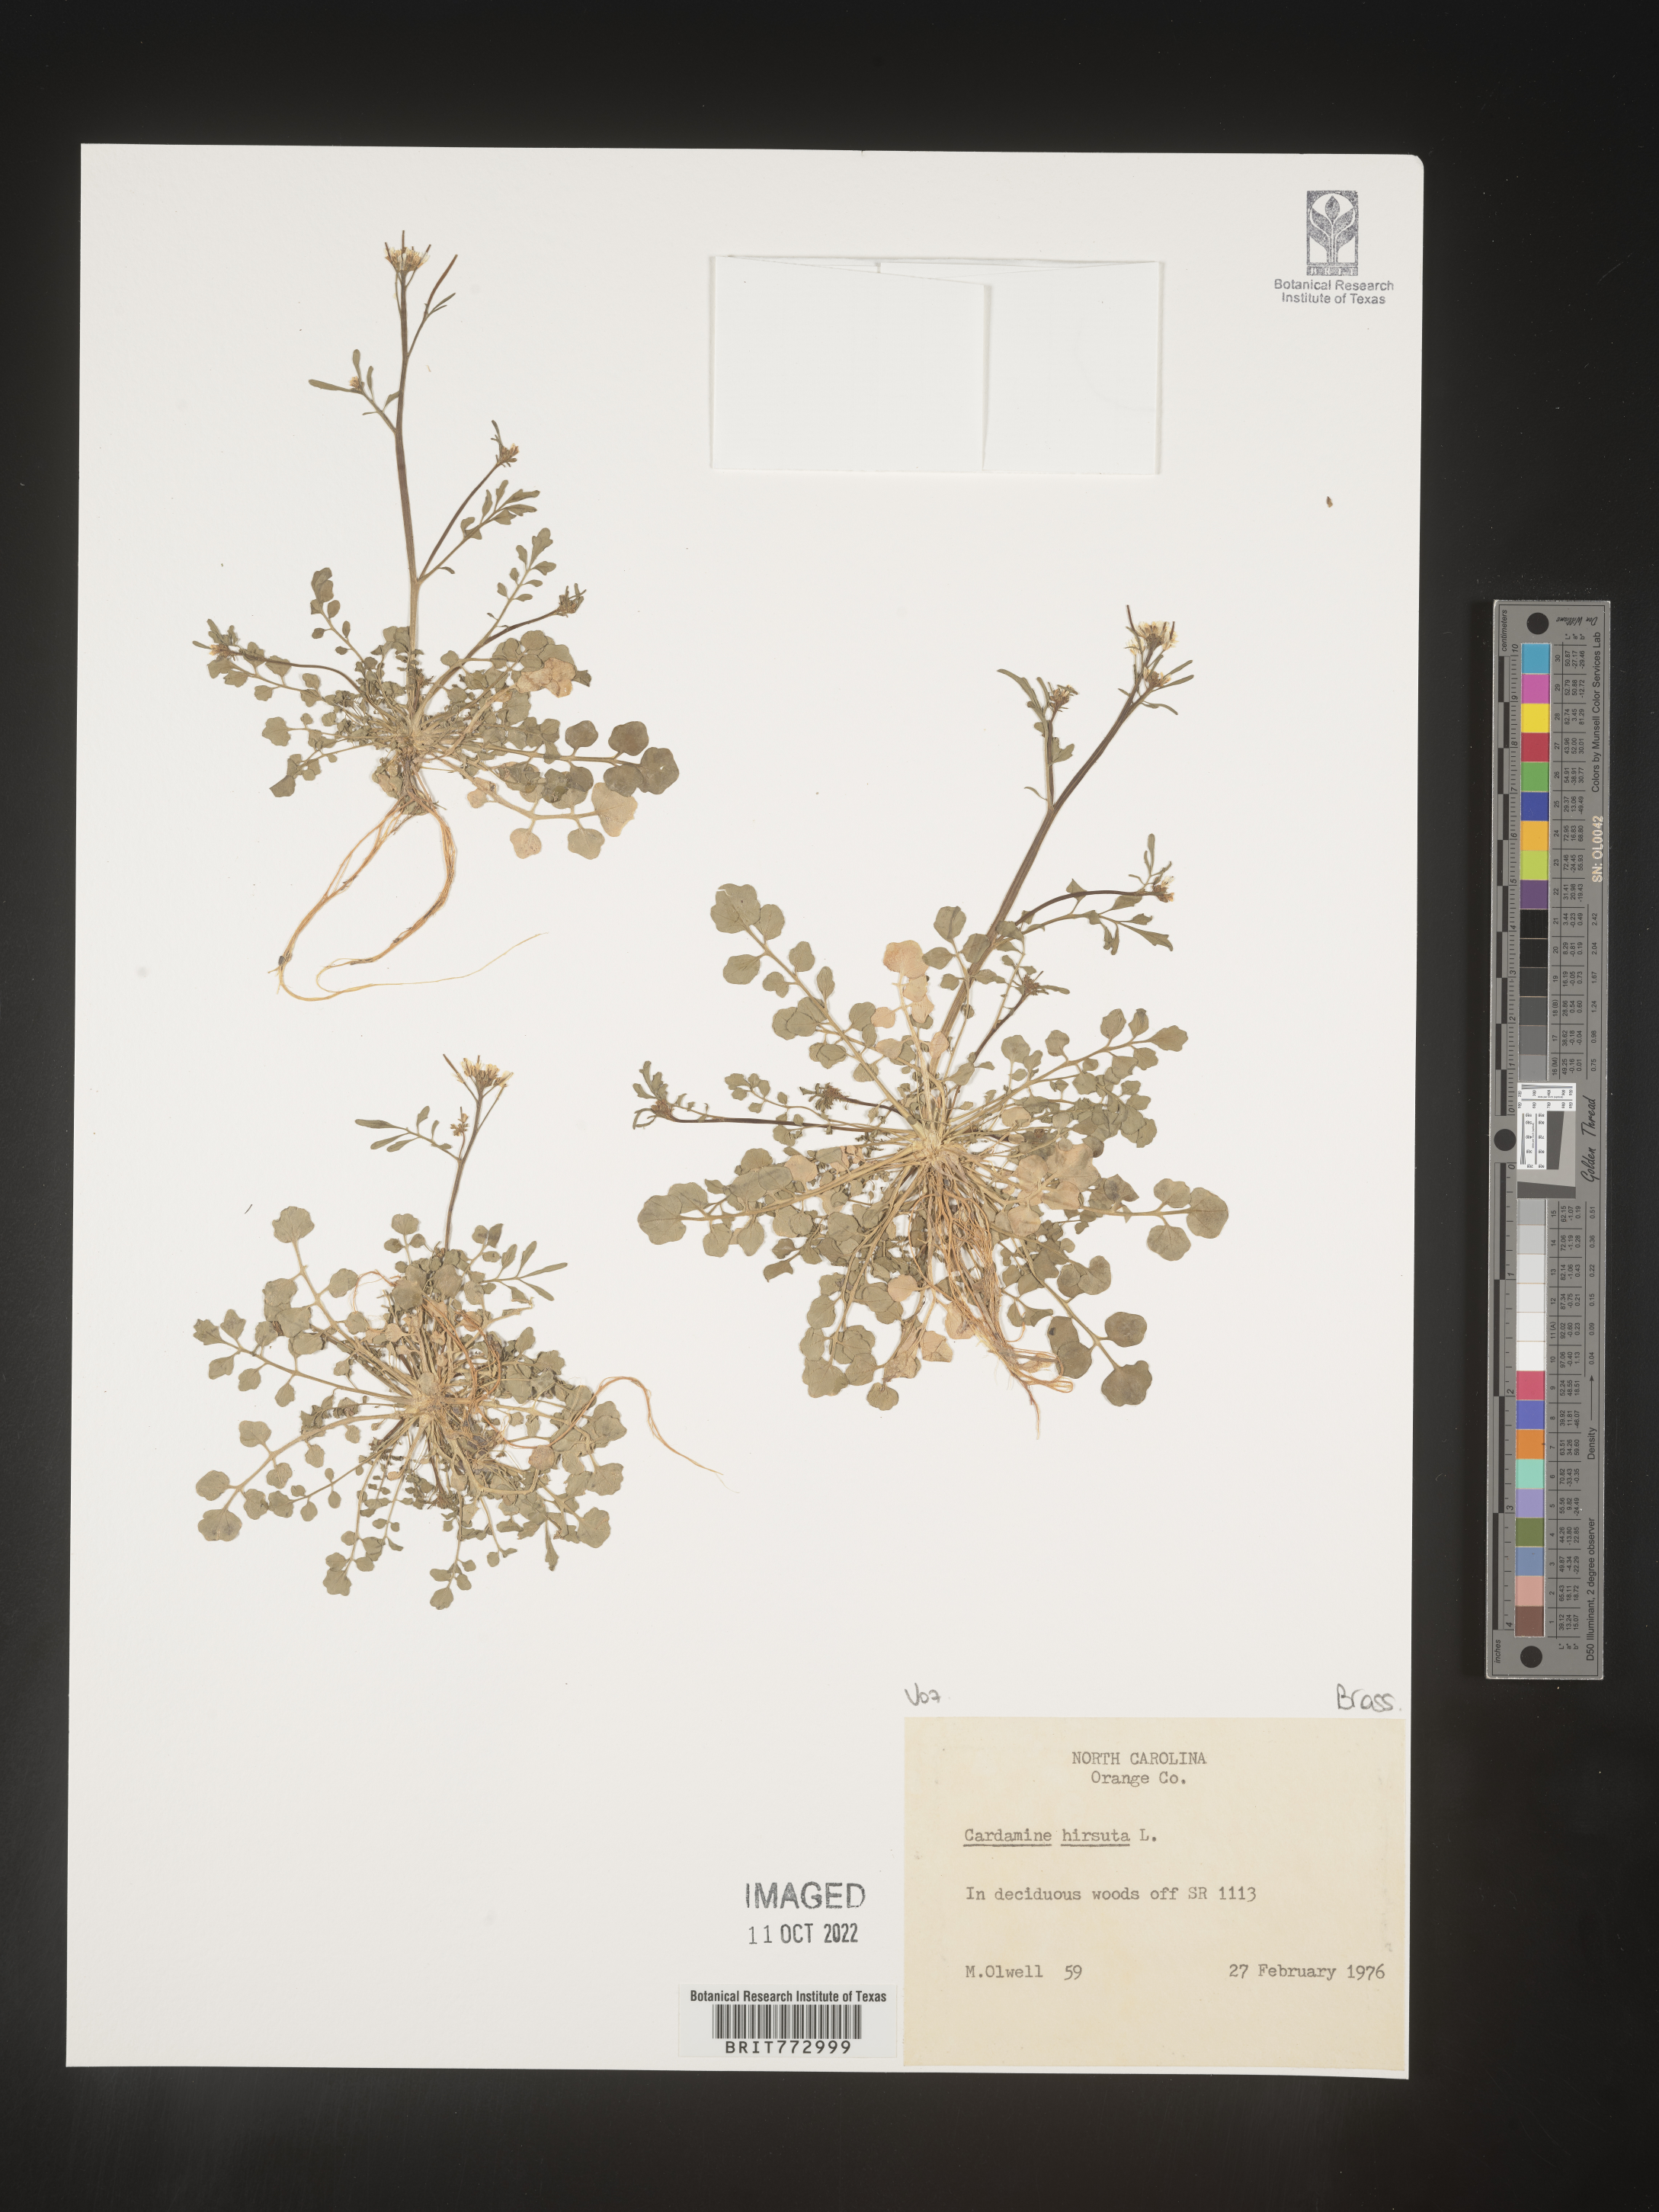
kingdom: Plantae
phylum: Tracheophyta
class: Magnoliopsida
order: Brassicales
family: Brassicaceae
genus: Cardamine
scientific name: Cardamine hirsuta
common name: Hairy bittercress
